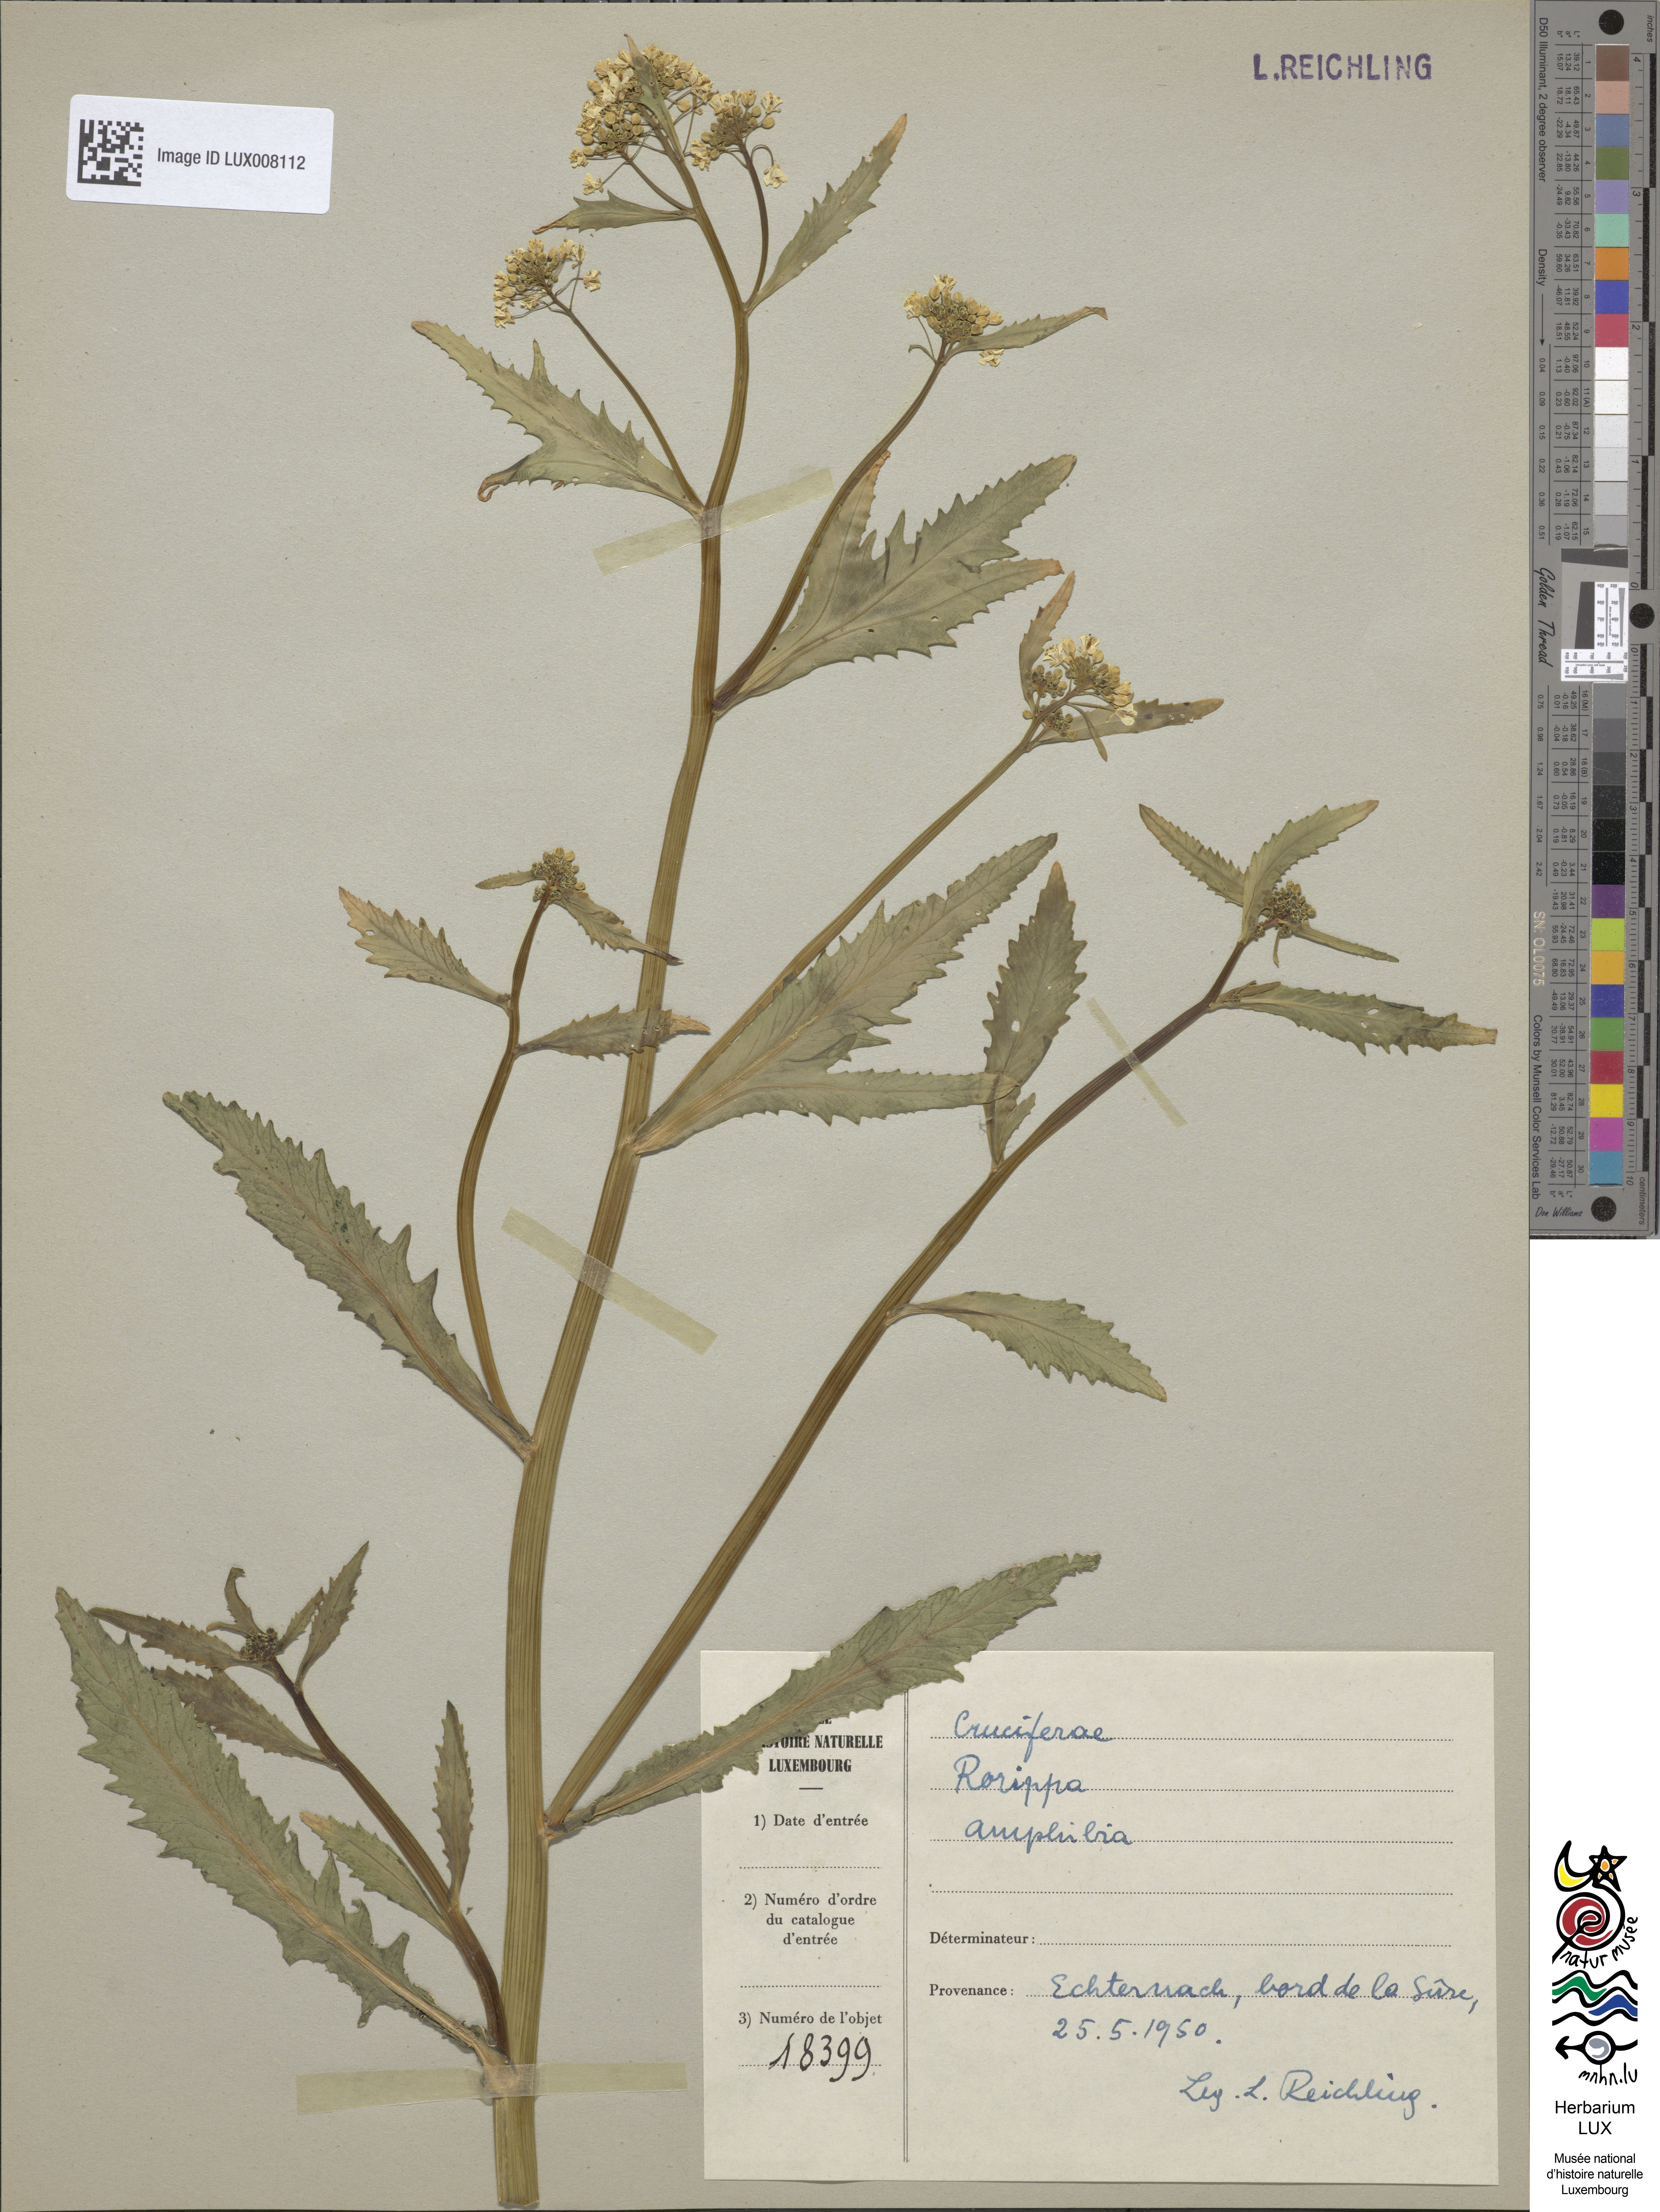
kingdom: Plantae
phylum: Tracheophyta
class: Magnoliopsida
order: Brassicales
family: Brassicaceae
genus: Rorippa
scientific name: Rorippa amphibia
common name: Great yellow-cress
